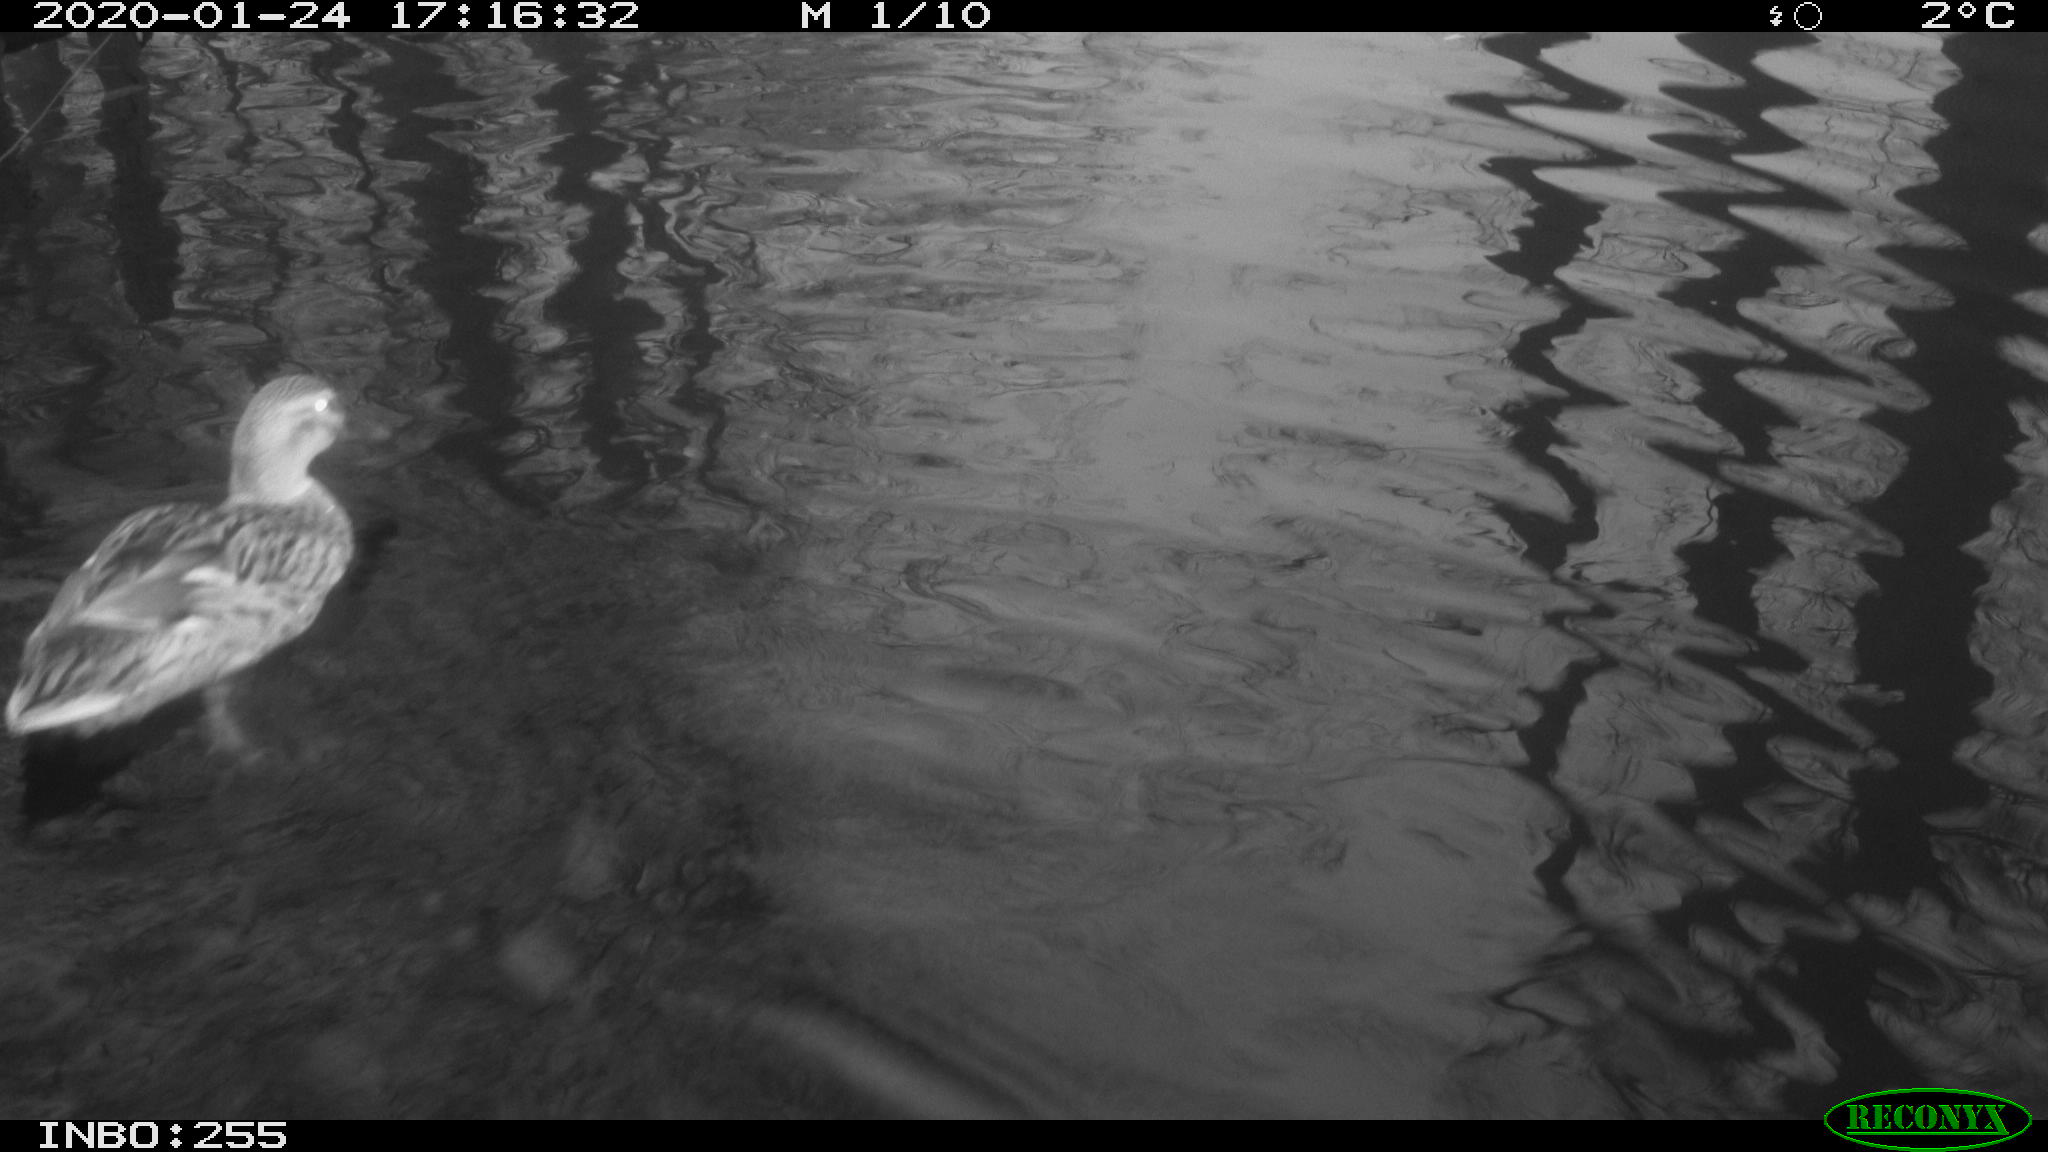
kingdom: Animalia
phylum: Chordata
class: Aves
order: Anseriformes
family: Anatidae
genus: Anas
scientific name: Anas platyrhynchos
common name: Mallard
